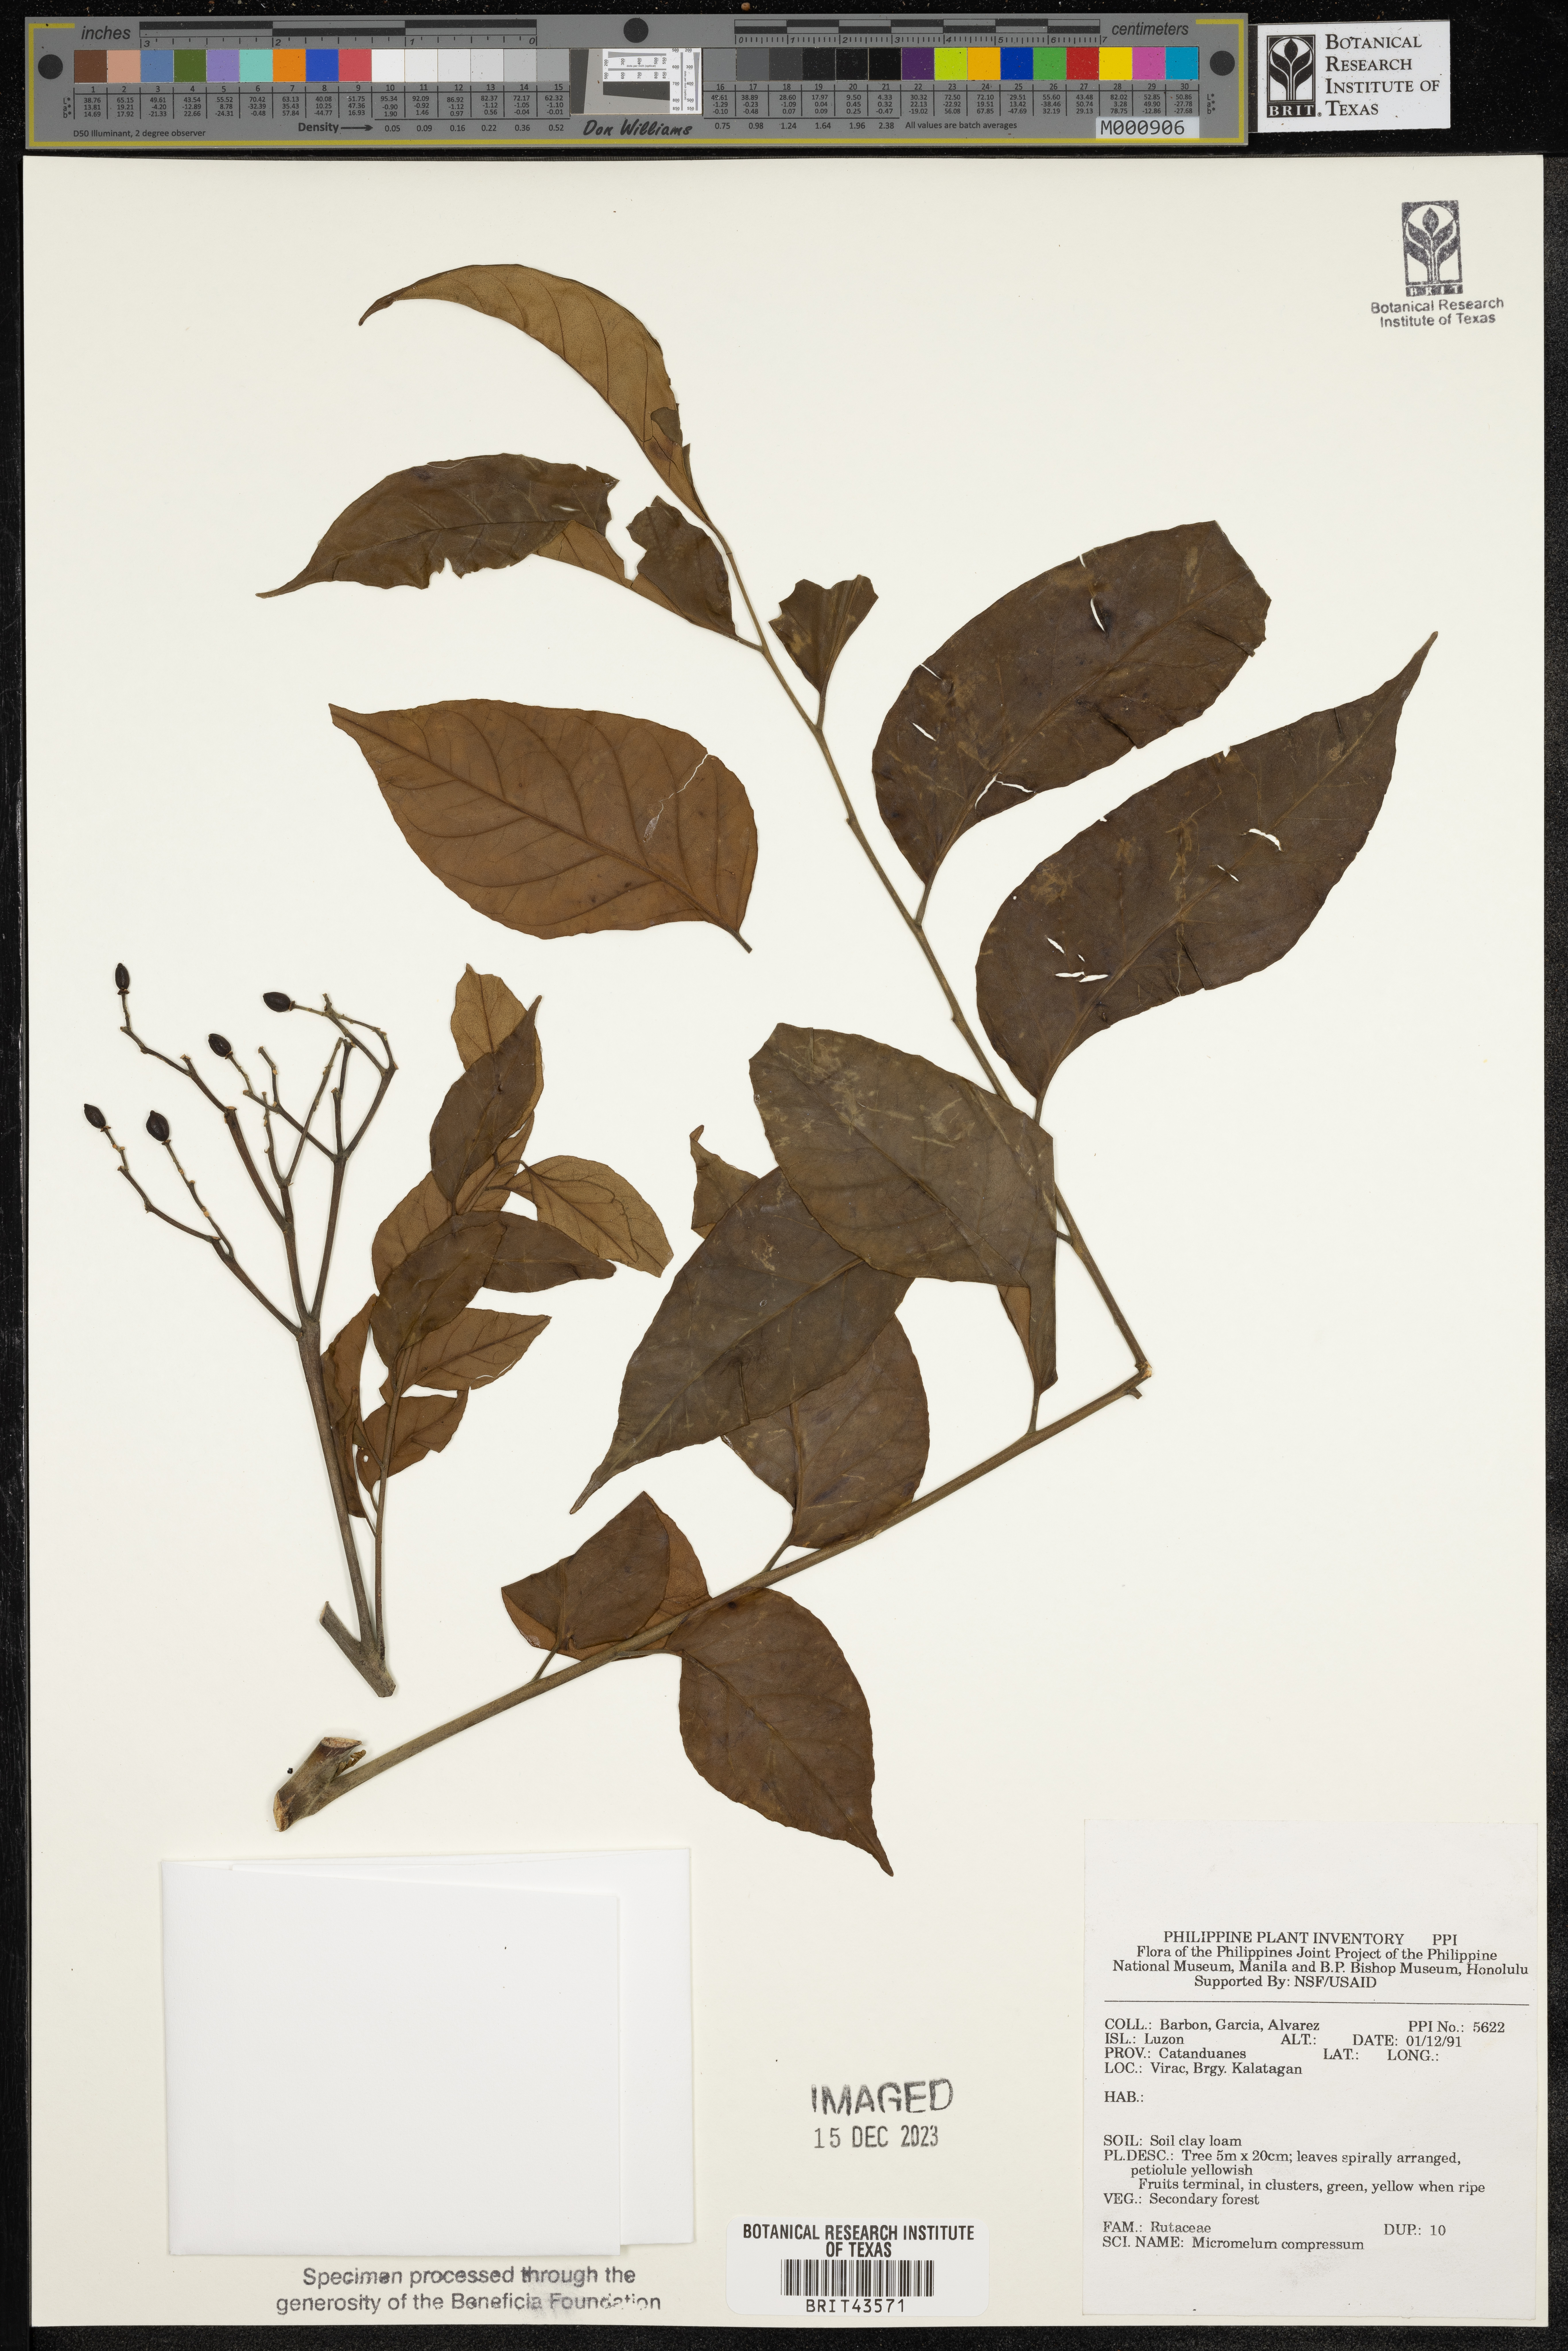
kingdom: Plantae
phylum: Tracheophyta
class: Magnoliopsida
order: Sapindales
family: Rutaceae
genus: Micromelum
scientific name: Micromelum compressum
